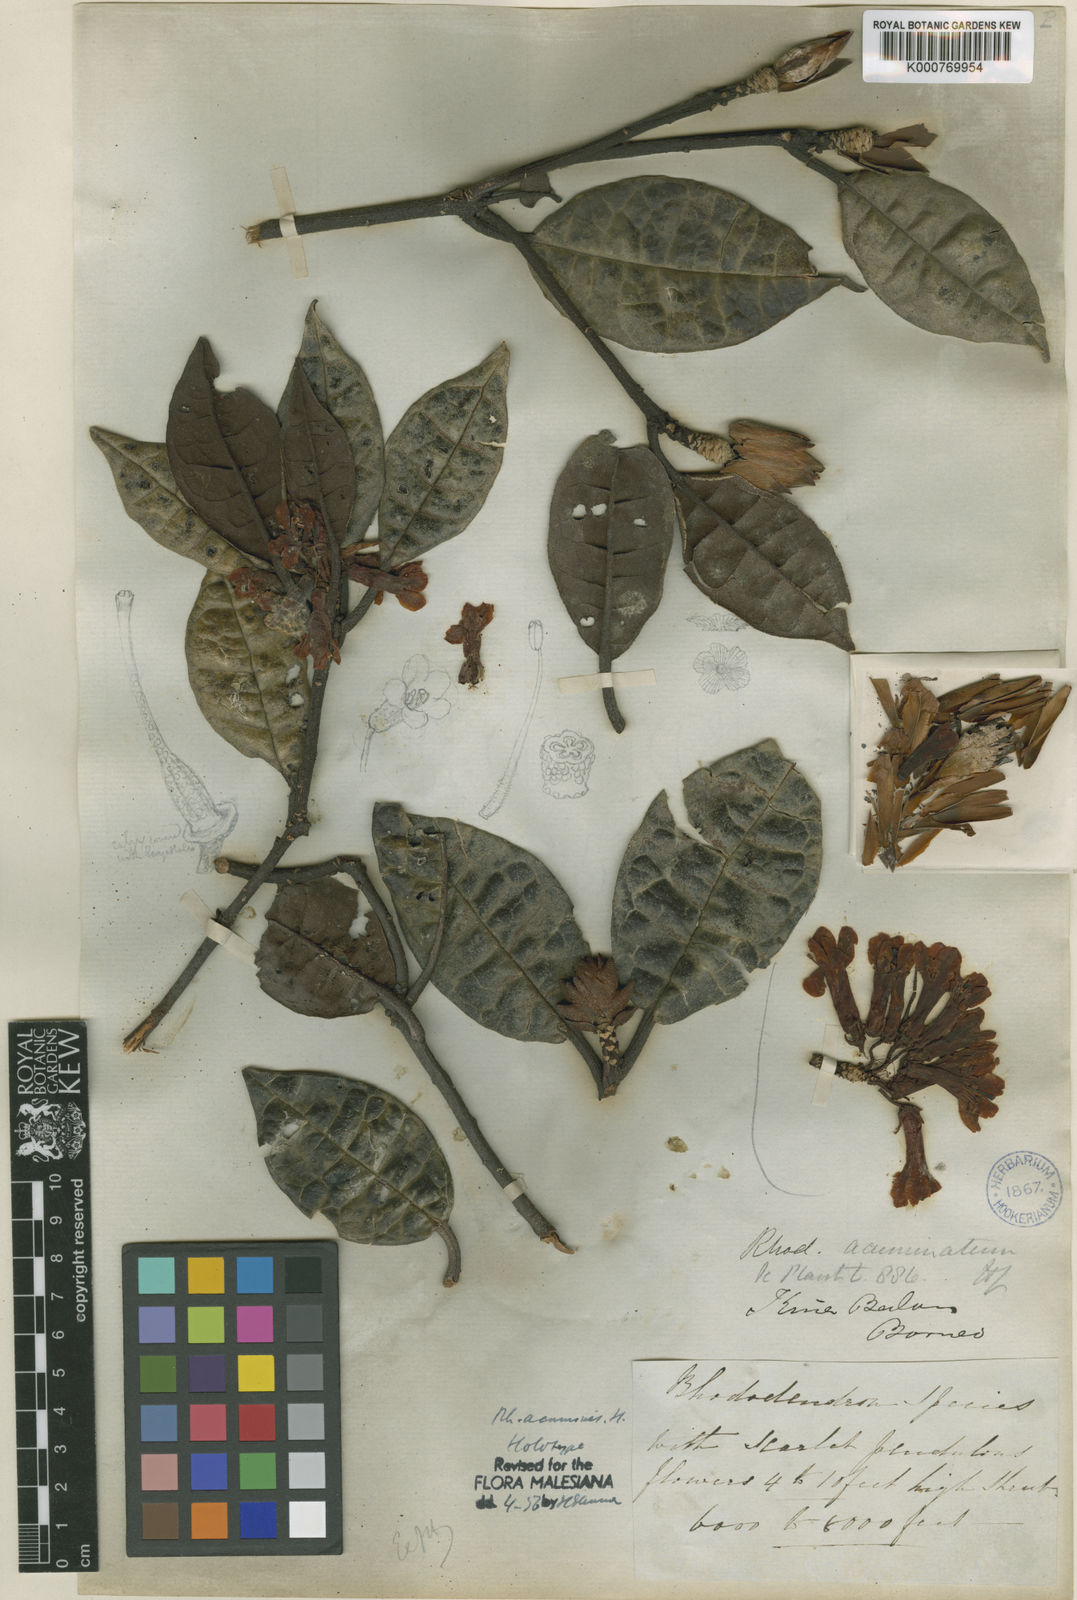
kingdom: Plantae
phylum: Tracheophyta
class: Magnoliopsida
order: Ericales
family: Ericaceae
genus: Rhododendron
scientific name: Rhododendron acuminatum
